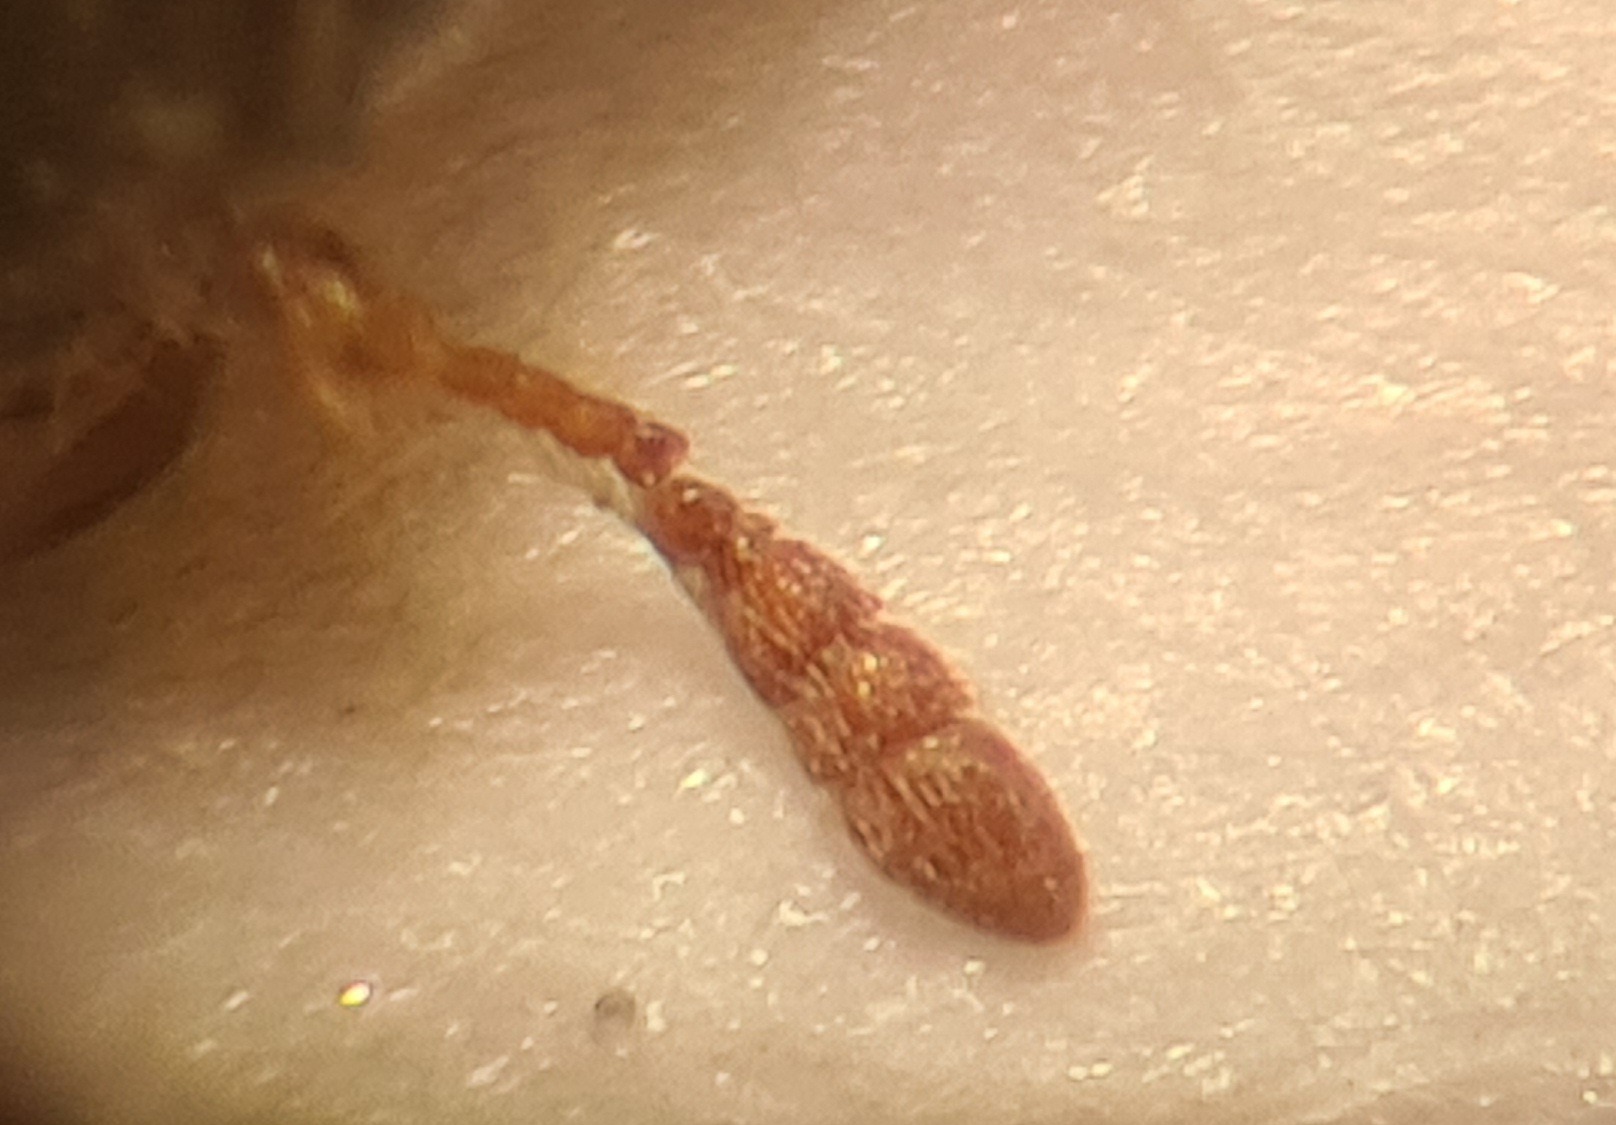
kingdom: Animalia
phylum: Arthropoda
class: Insecta
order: Coleoptera
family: Dermestidae
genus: Attagenus
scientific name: Attagenus woodroffei
